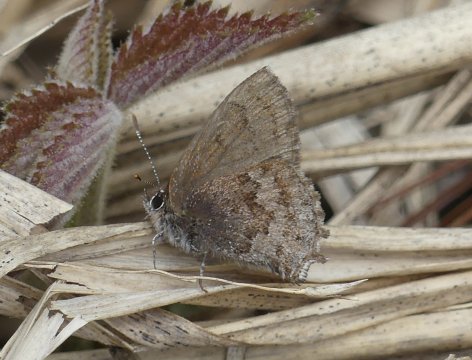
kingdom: Animalia
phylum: Arthropoda
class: Insecta
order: Lepidoptera
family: Lycaenidae
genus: Thecla
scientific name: Thecla irus
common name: Frosted Elfin
